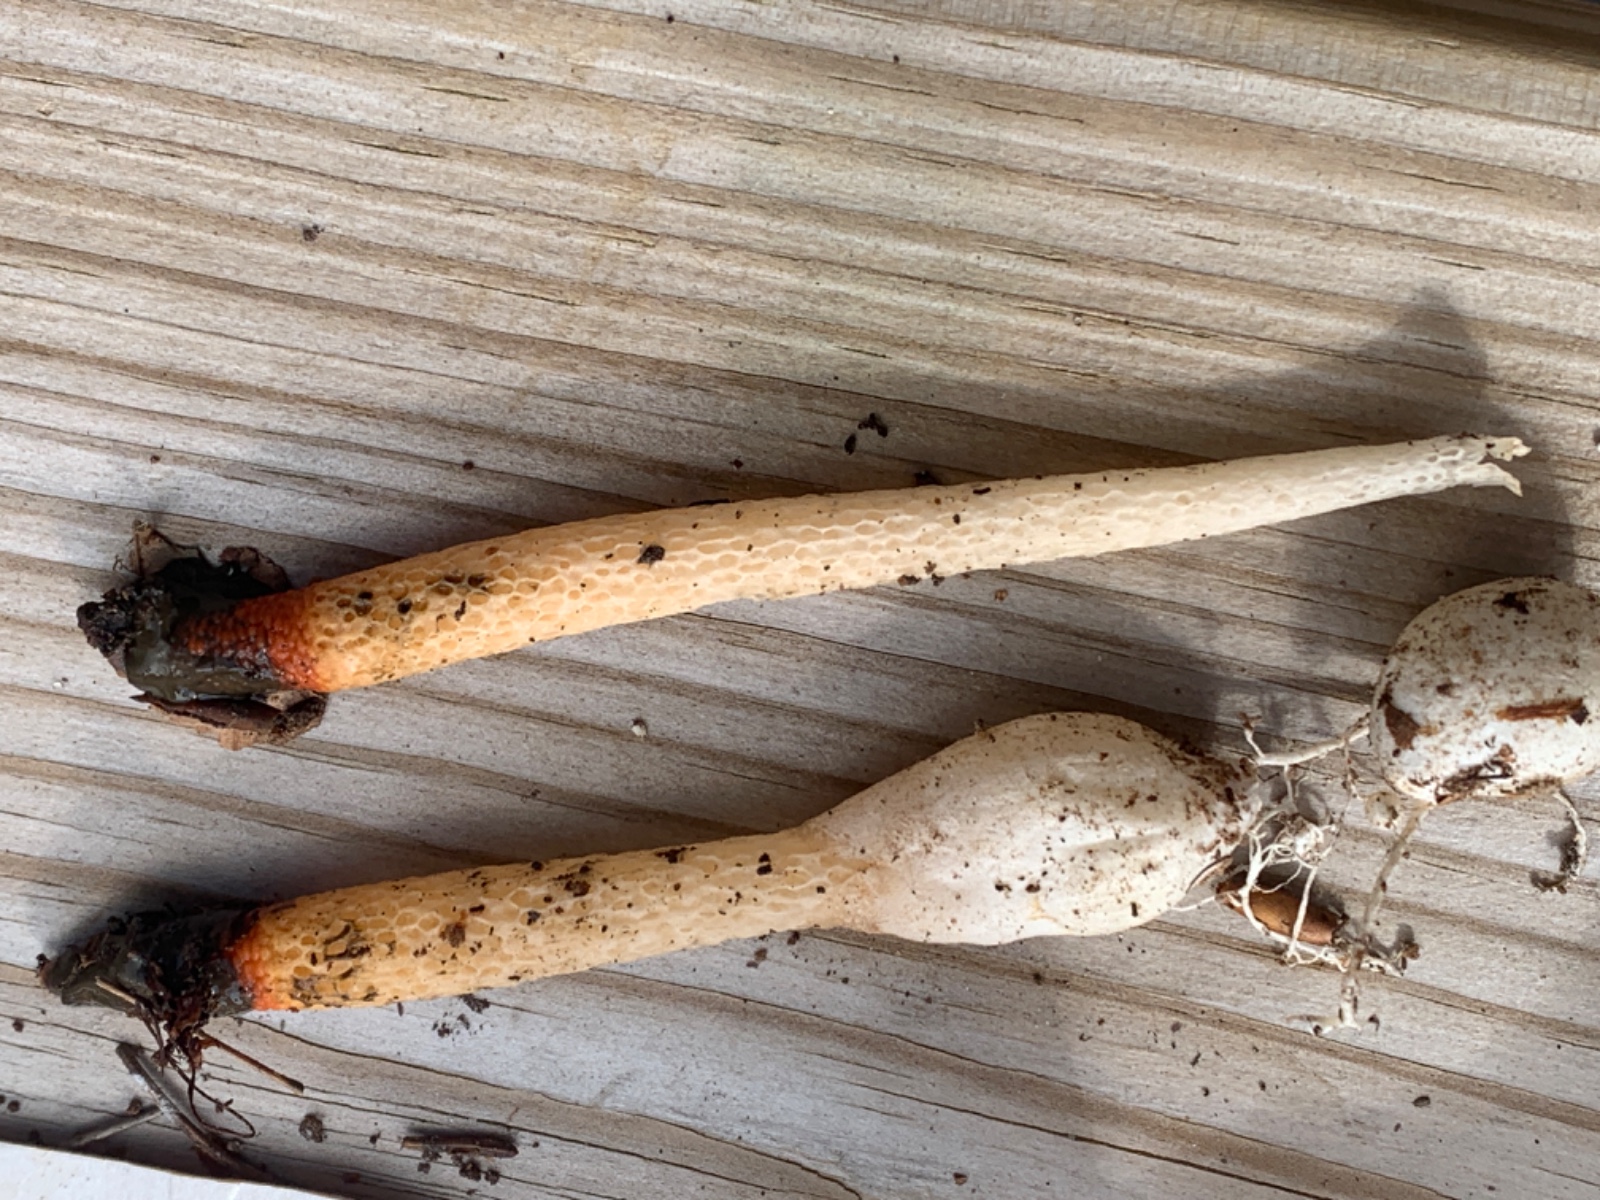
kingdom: Fungi
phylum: Basidiomycota
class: Agaricomycetes
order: Phallales
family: Phallaceae
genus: Mutinus
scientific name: Mutinus caninus
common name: hunde-stinksvamp
